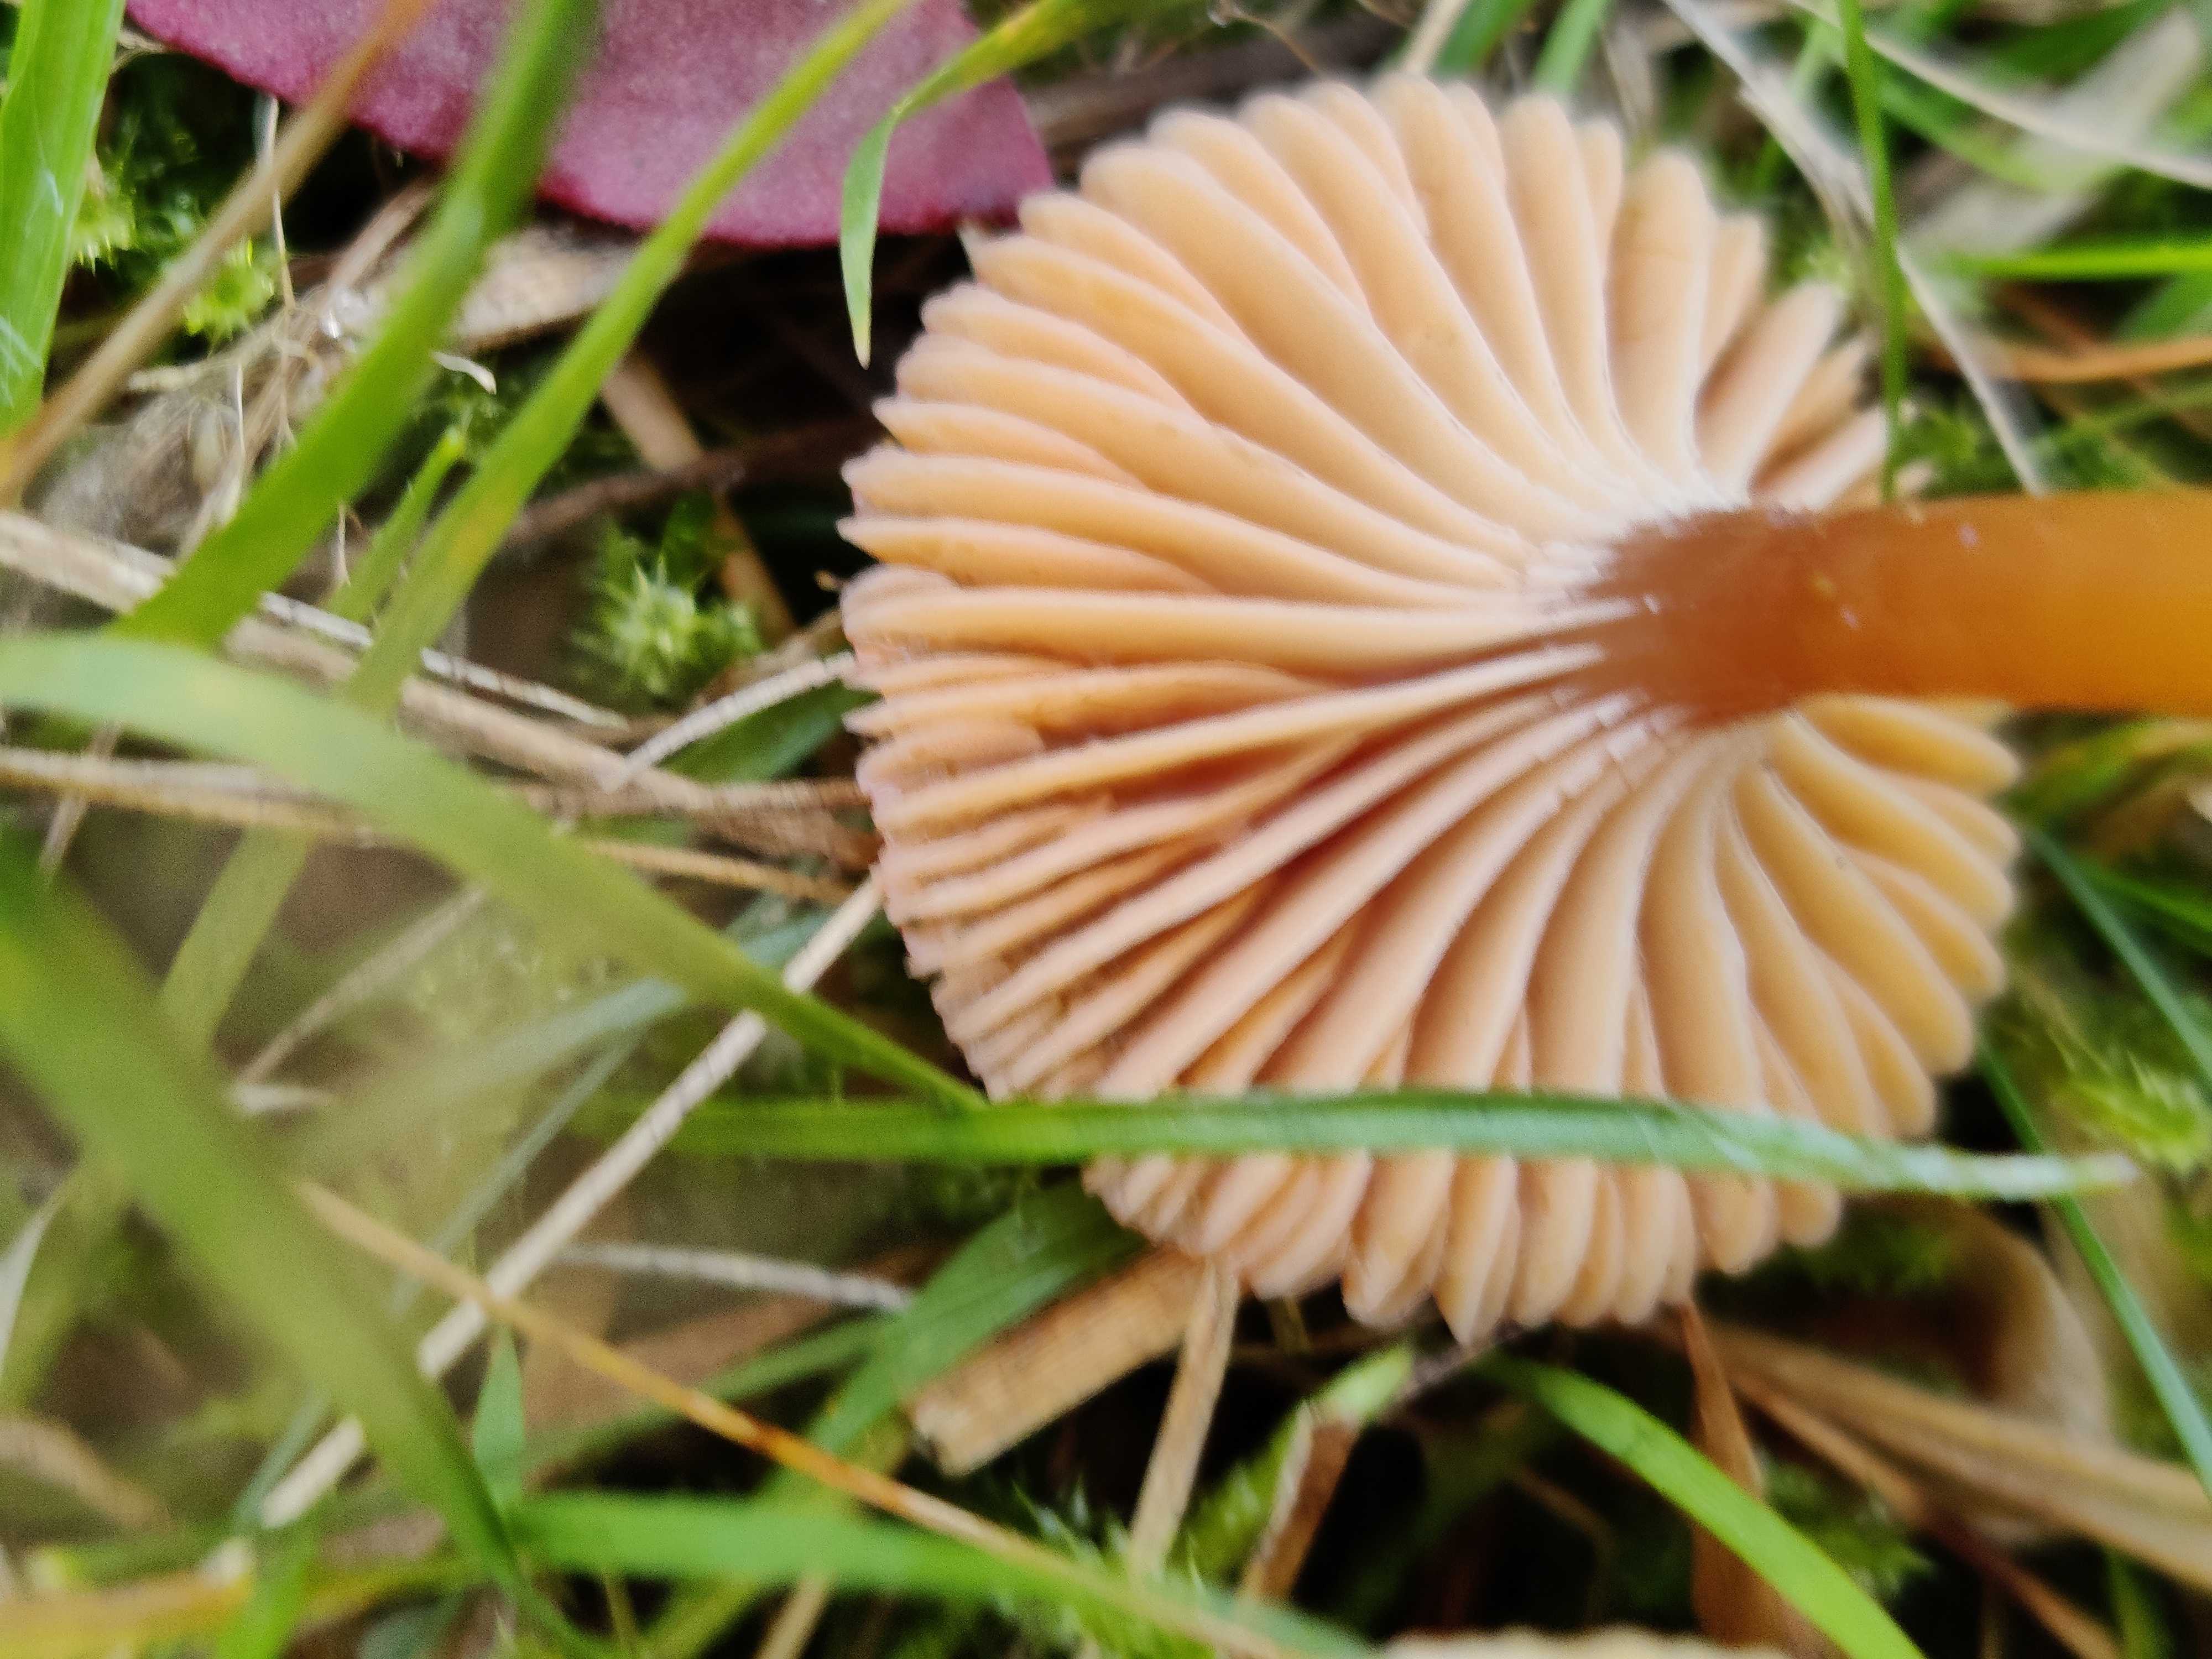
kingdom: Fungi
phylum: Basidiomycota
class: Agaricomycetes
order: Agaricales
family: Hygrophoraceae
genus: Gliophorus
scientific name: Gliophorus laetus
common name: brusk-vokshat
